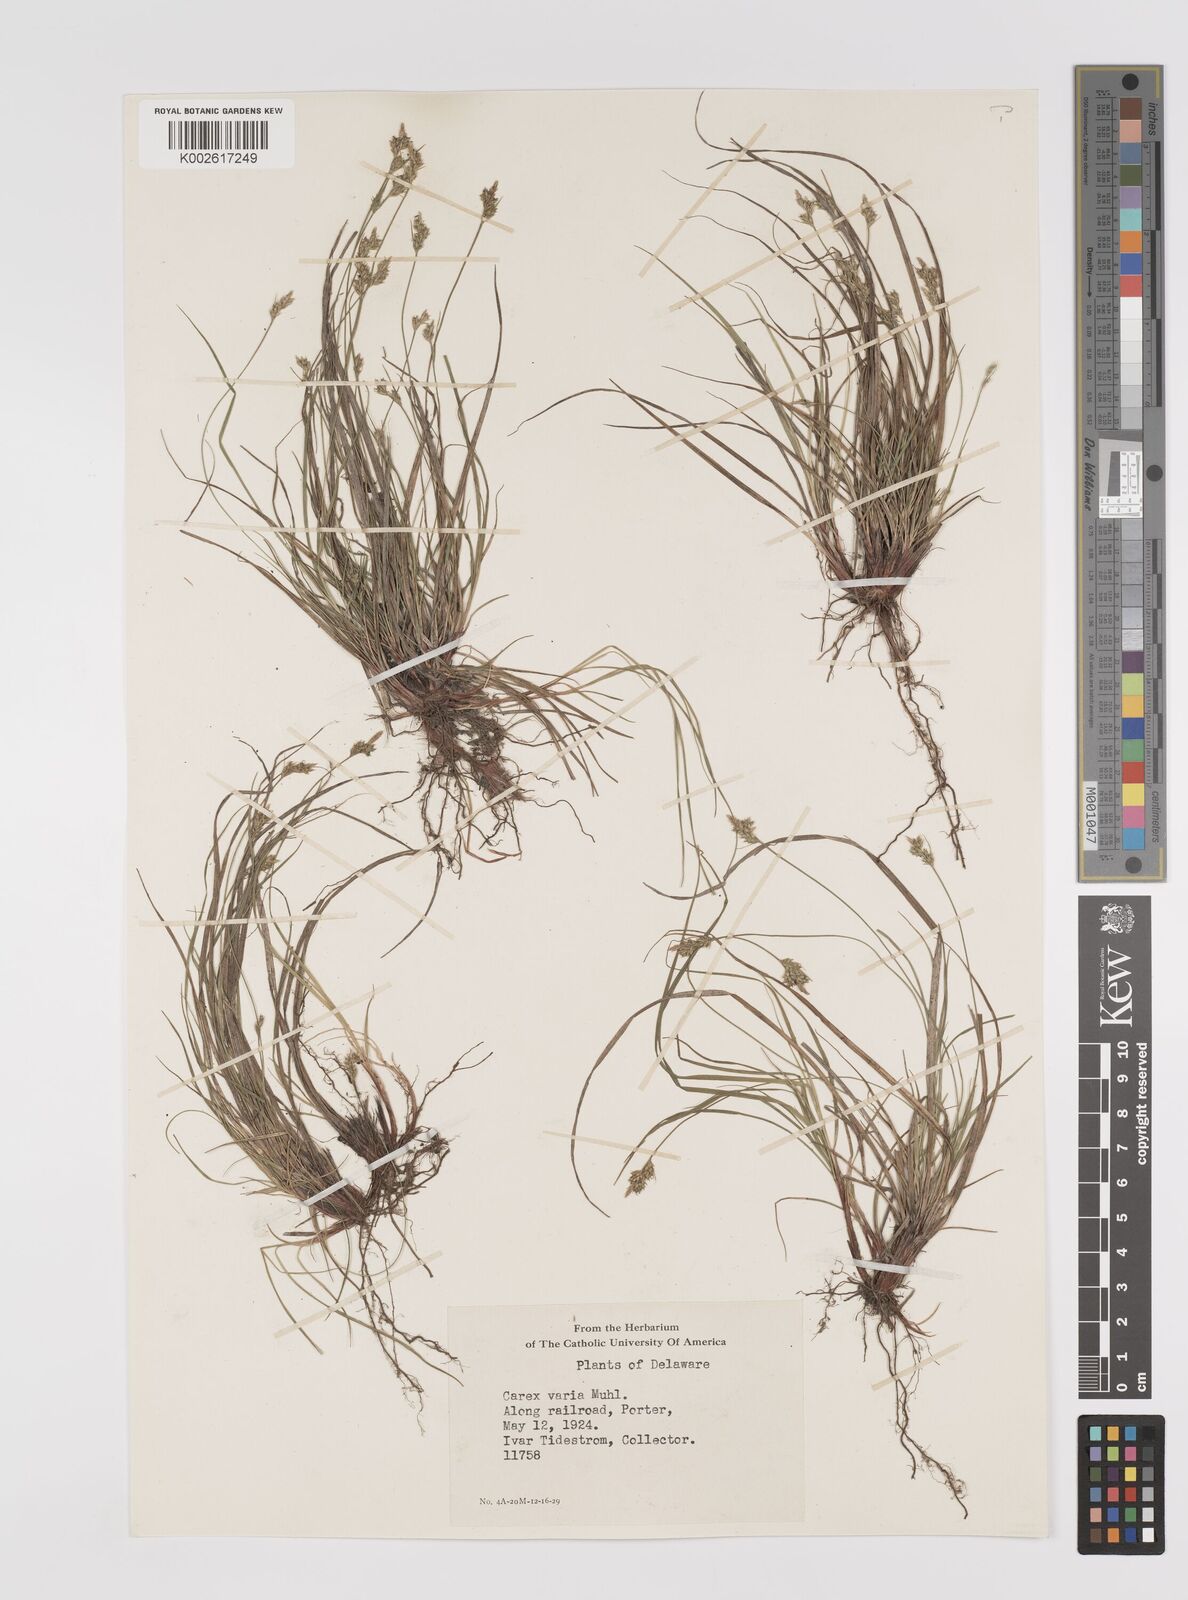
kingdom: Plantae
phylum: Tracheophyta
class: Liliopsida
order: Poales
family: Cyperaceae
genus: Carex
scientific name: Carex albicans
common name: Bellow-beaked sedge
